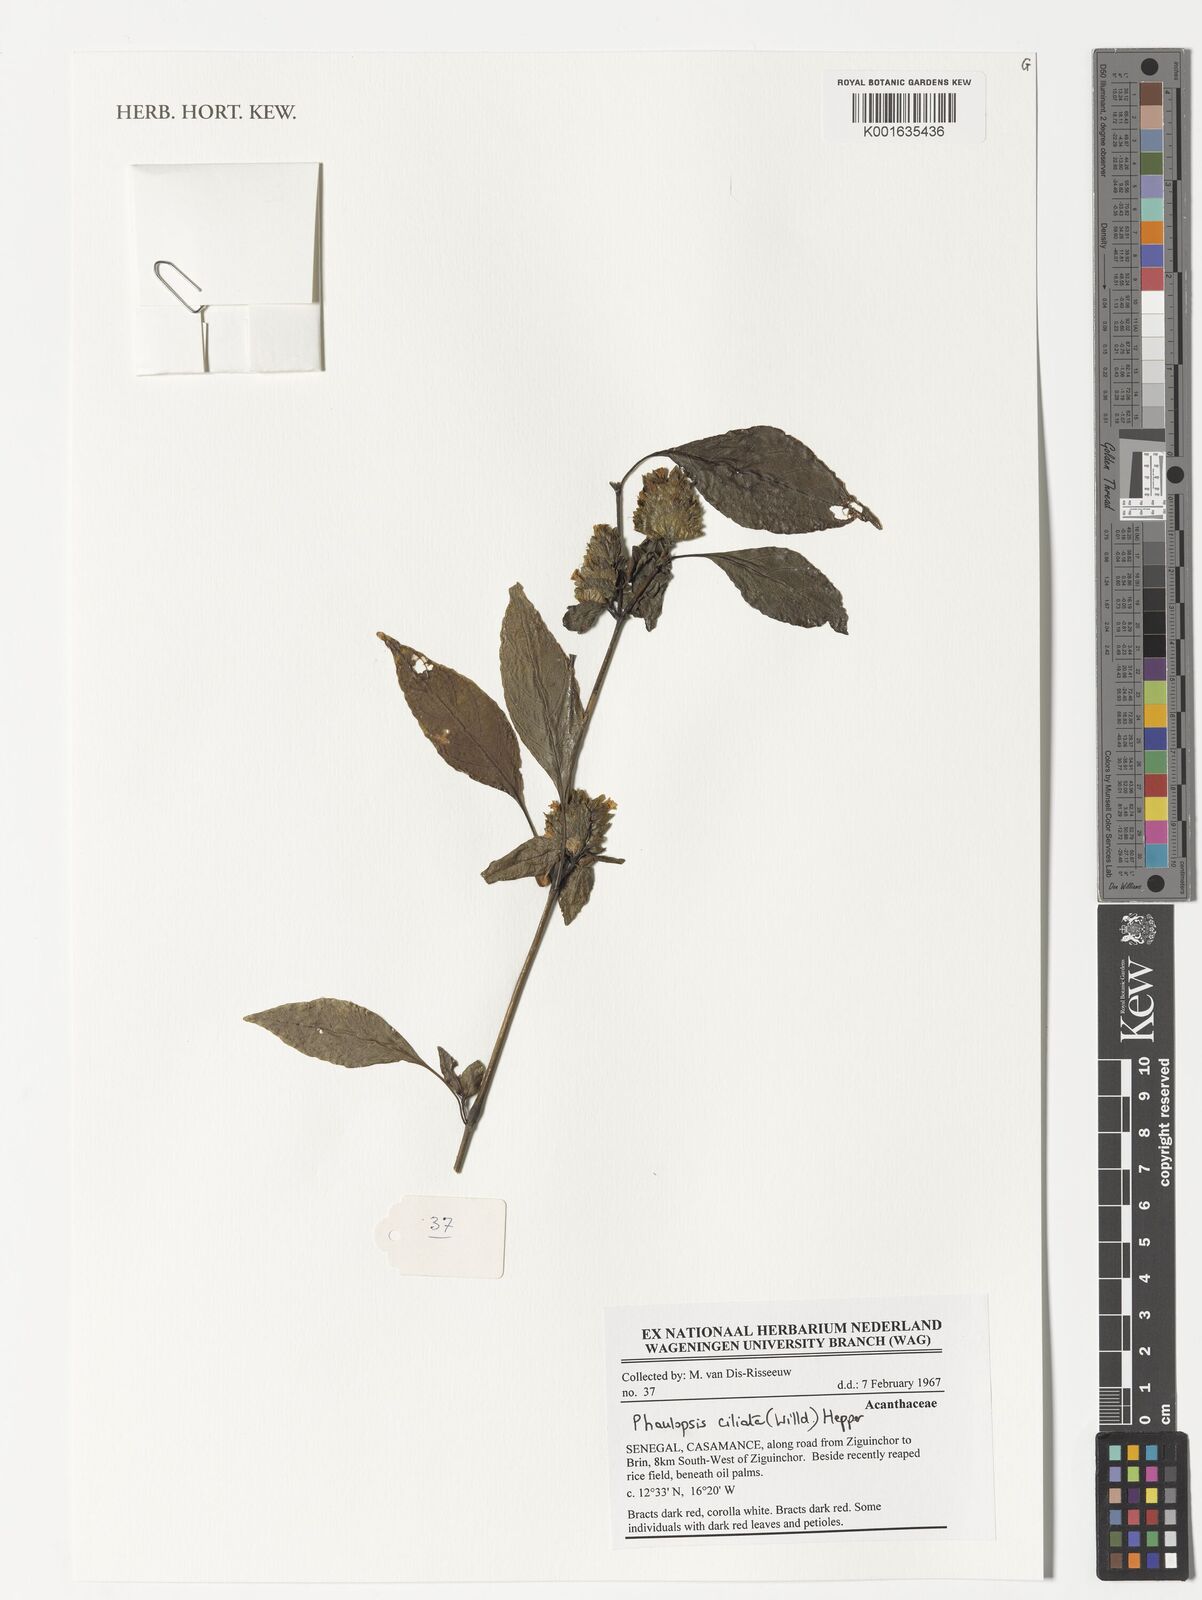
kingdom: Plantae
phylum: Tracheophyta
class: Magnoliopsida
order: Lamiales
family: Acanthaceae
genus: Phaulopsis
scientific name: Phaulopsis ciliata
